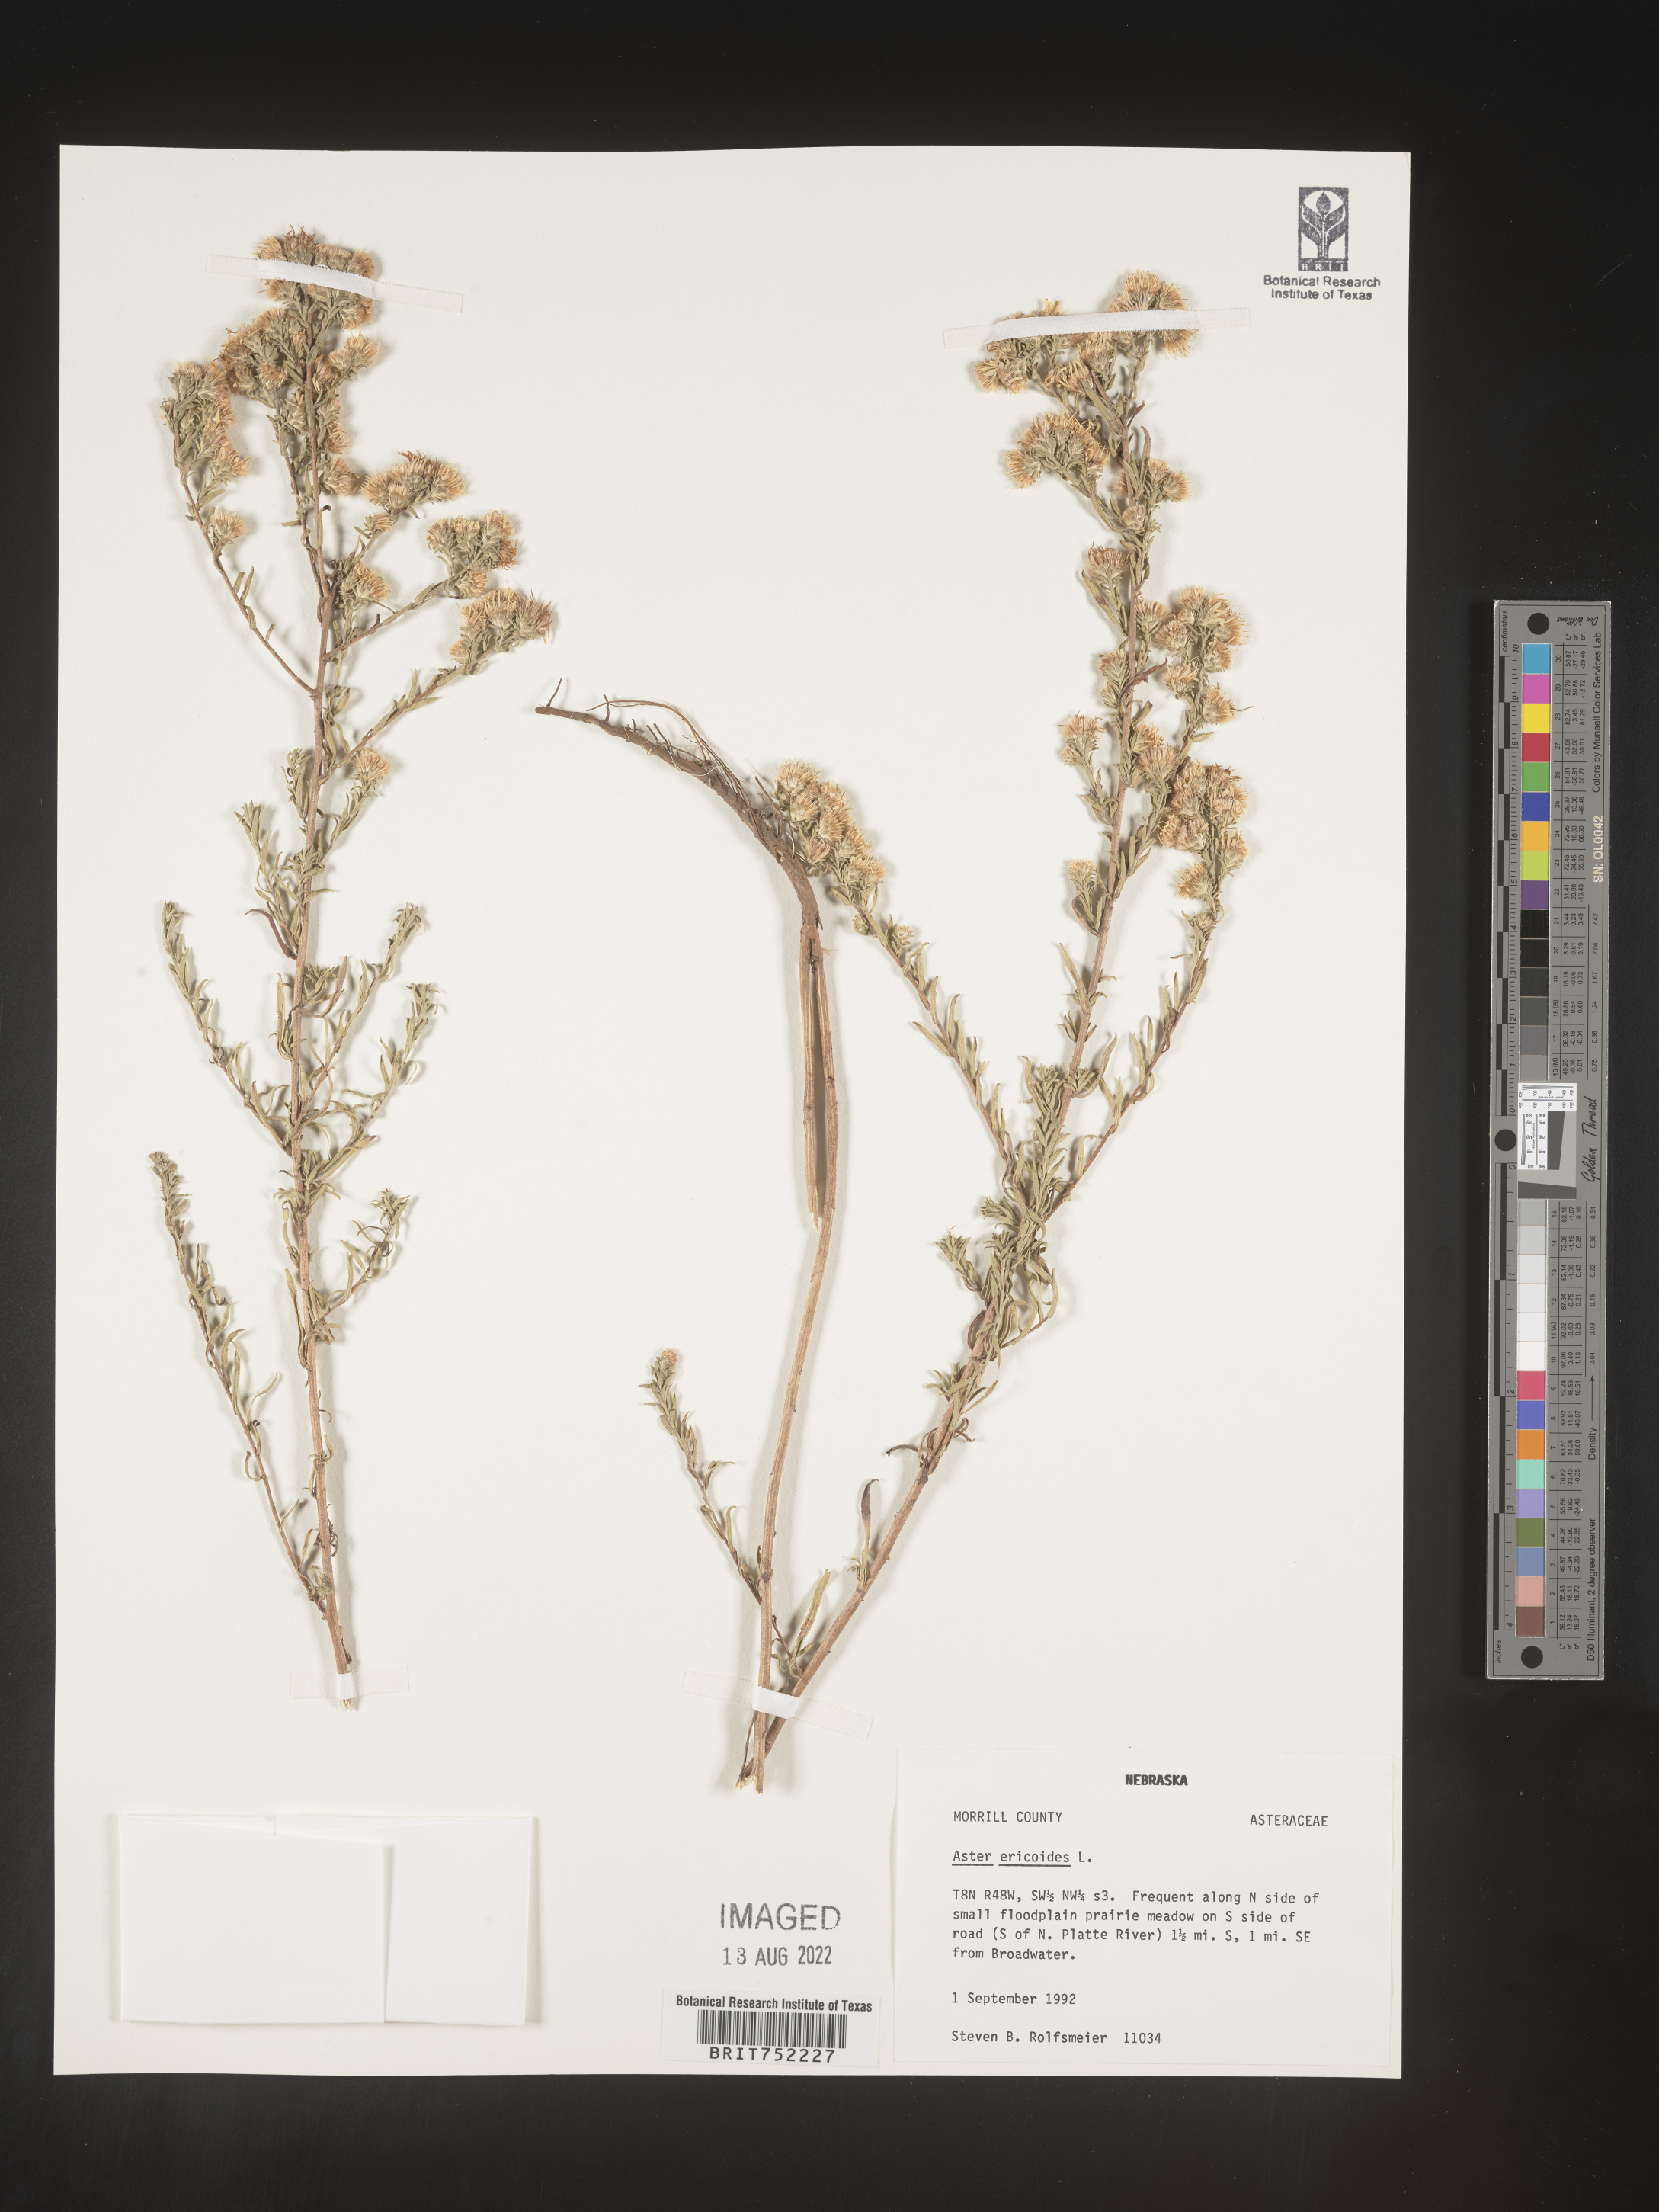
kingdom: Plantae
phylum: Tracheophyta
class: Magnoliopsida
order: Asterales
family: Asteraceae
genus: Symphyotrichum
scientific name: Symphyotrichum ericoides
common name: Heath aster
